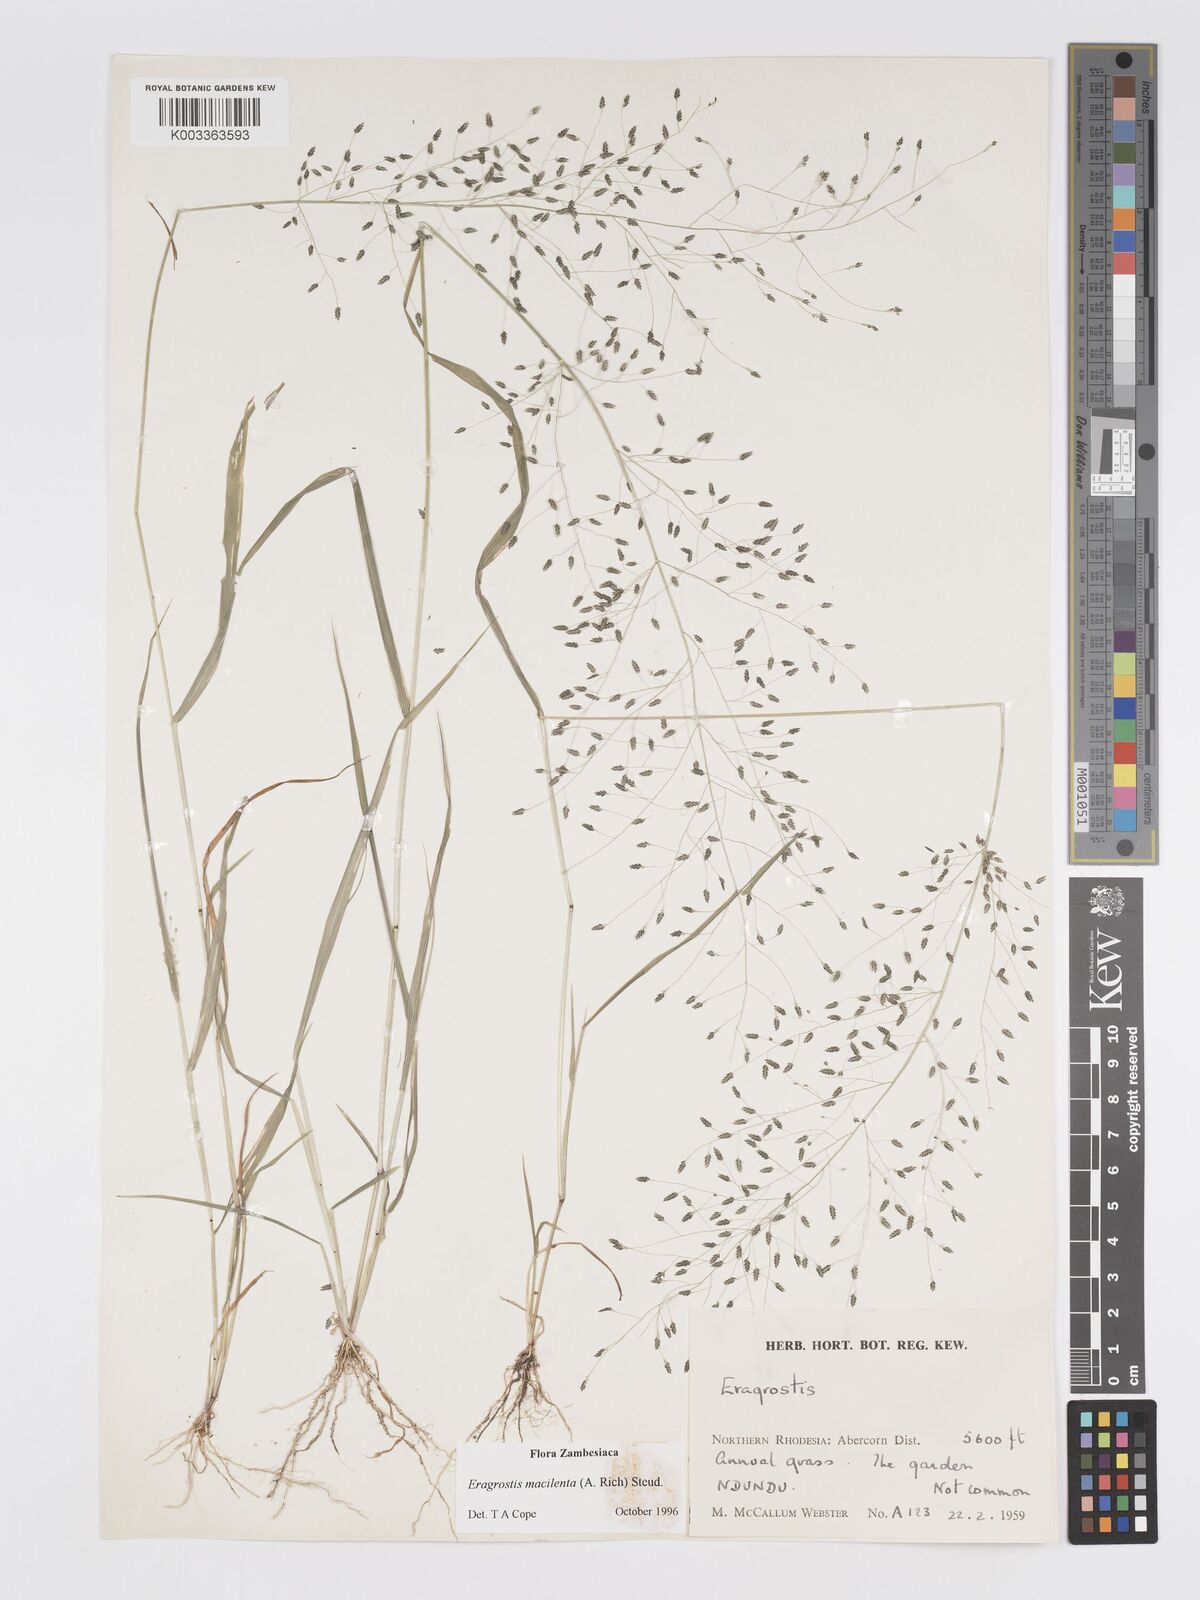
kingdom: Plantae
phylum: Tracheophyta
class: Liliopsida
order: Poales
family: Poaceae
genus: Eragrostis
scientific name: Eragrostis macilenta
